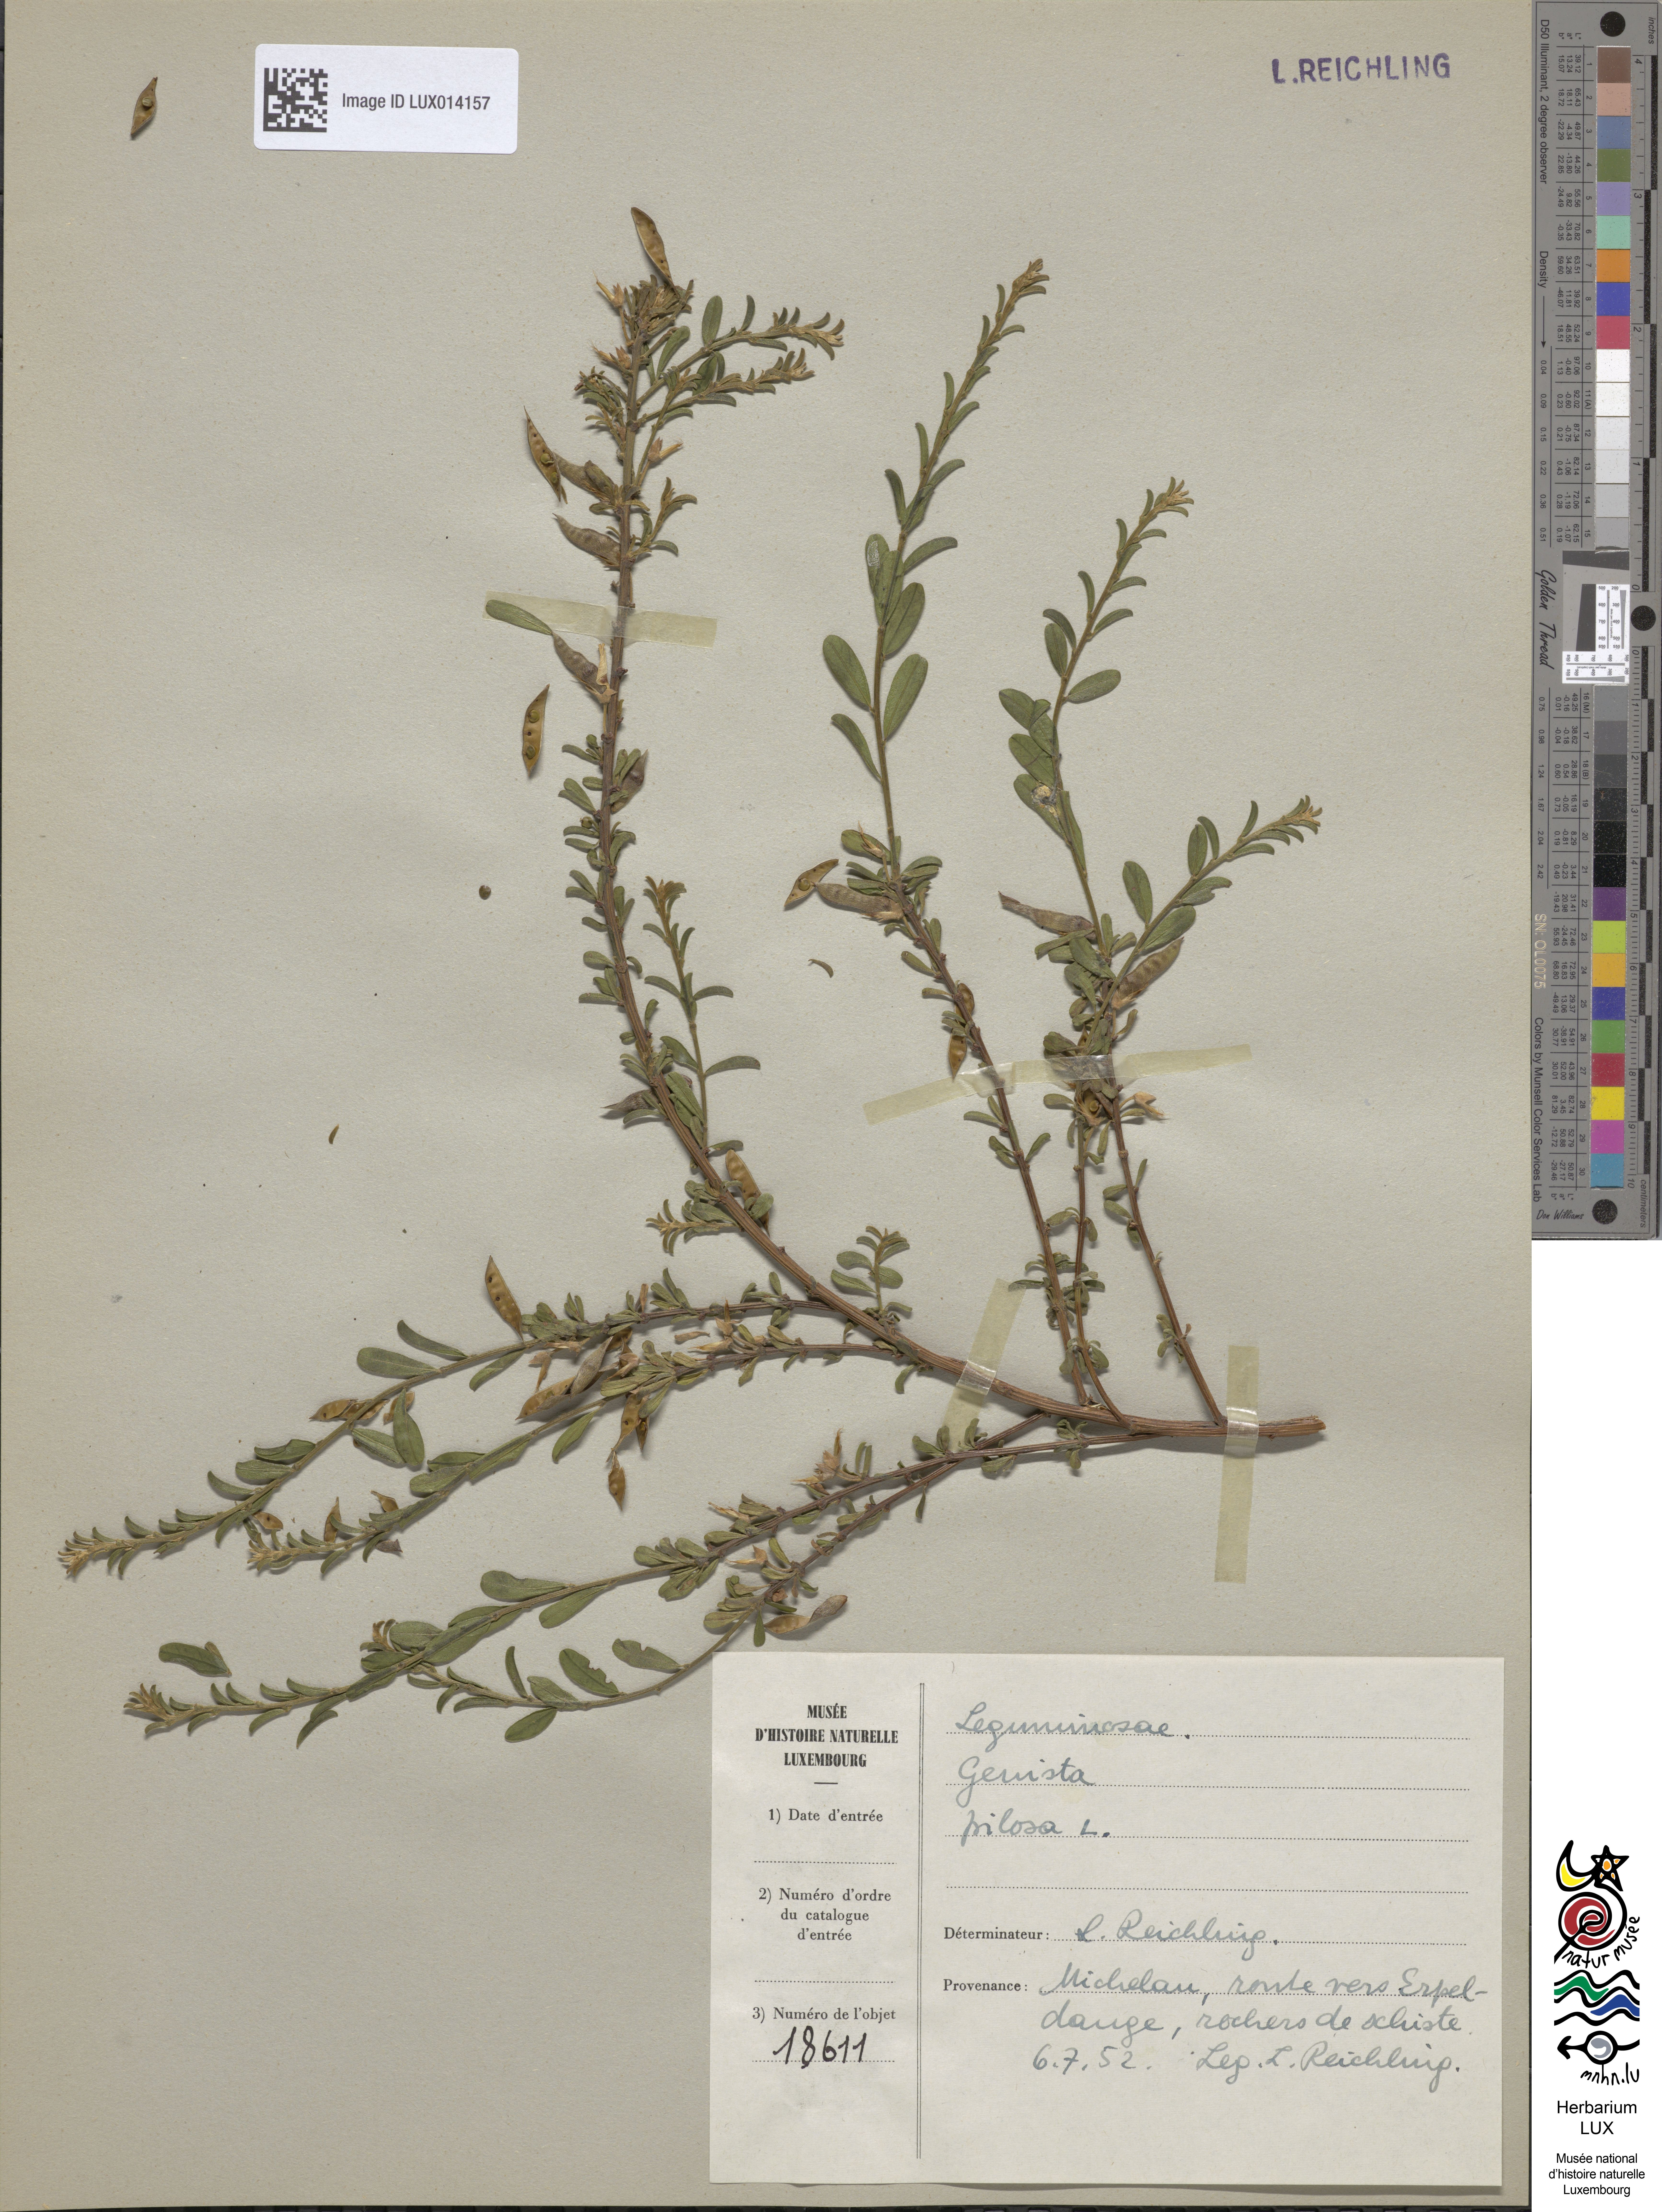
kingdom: Plantae
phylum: Tracheophyta
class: Magnoliopsida
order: Fabales
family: Fabaceae
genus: Genista
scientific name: Genista pilosa
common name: Hairy greenweed
